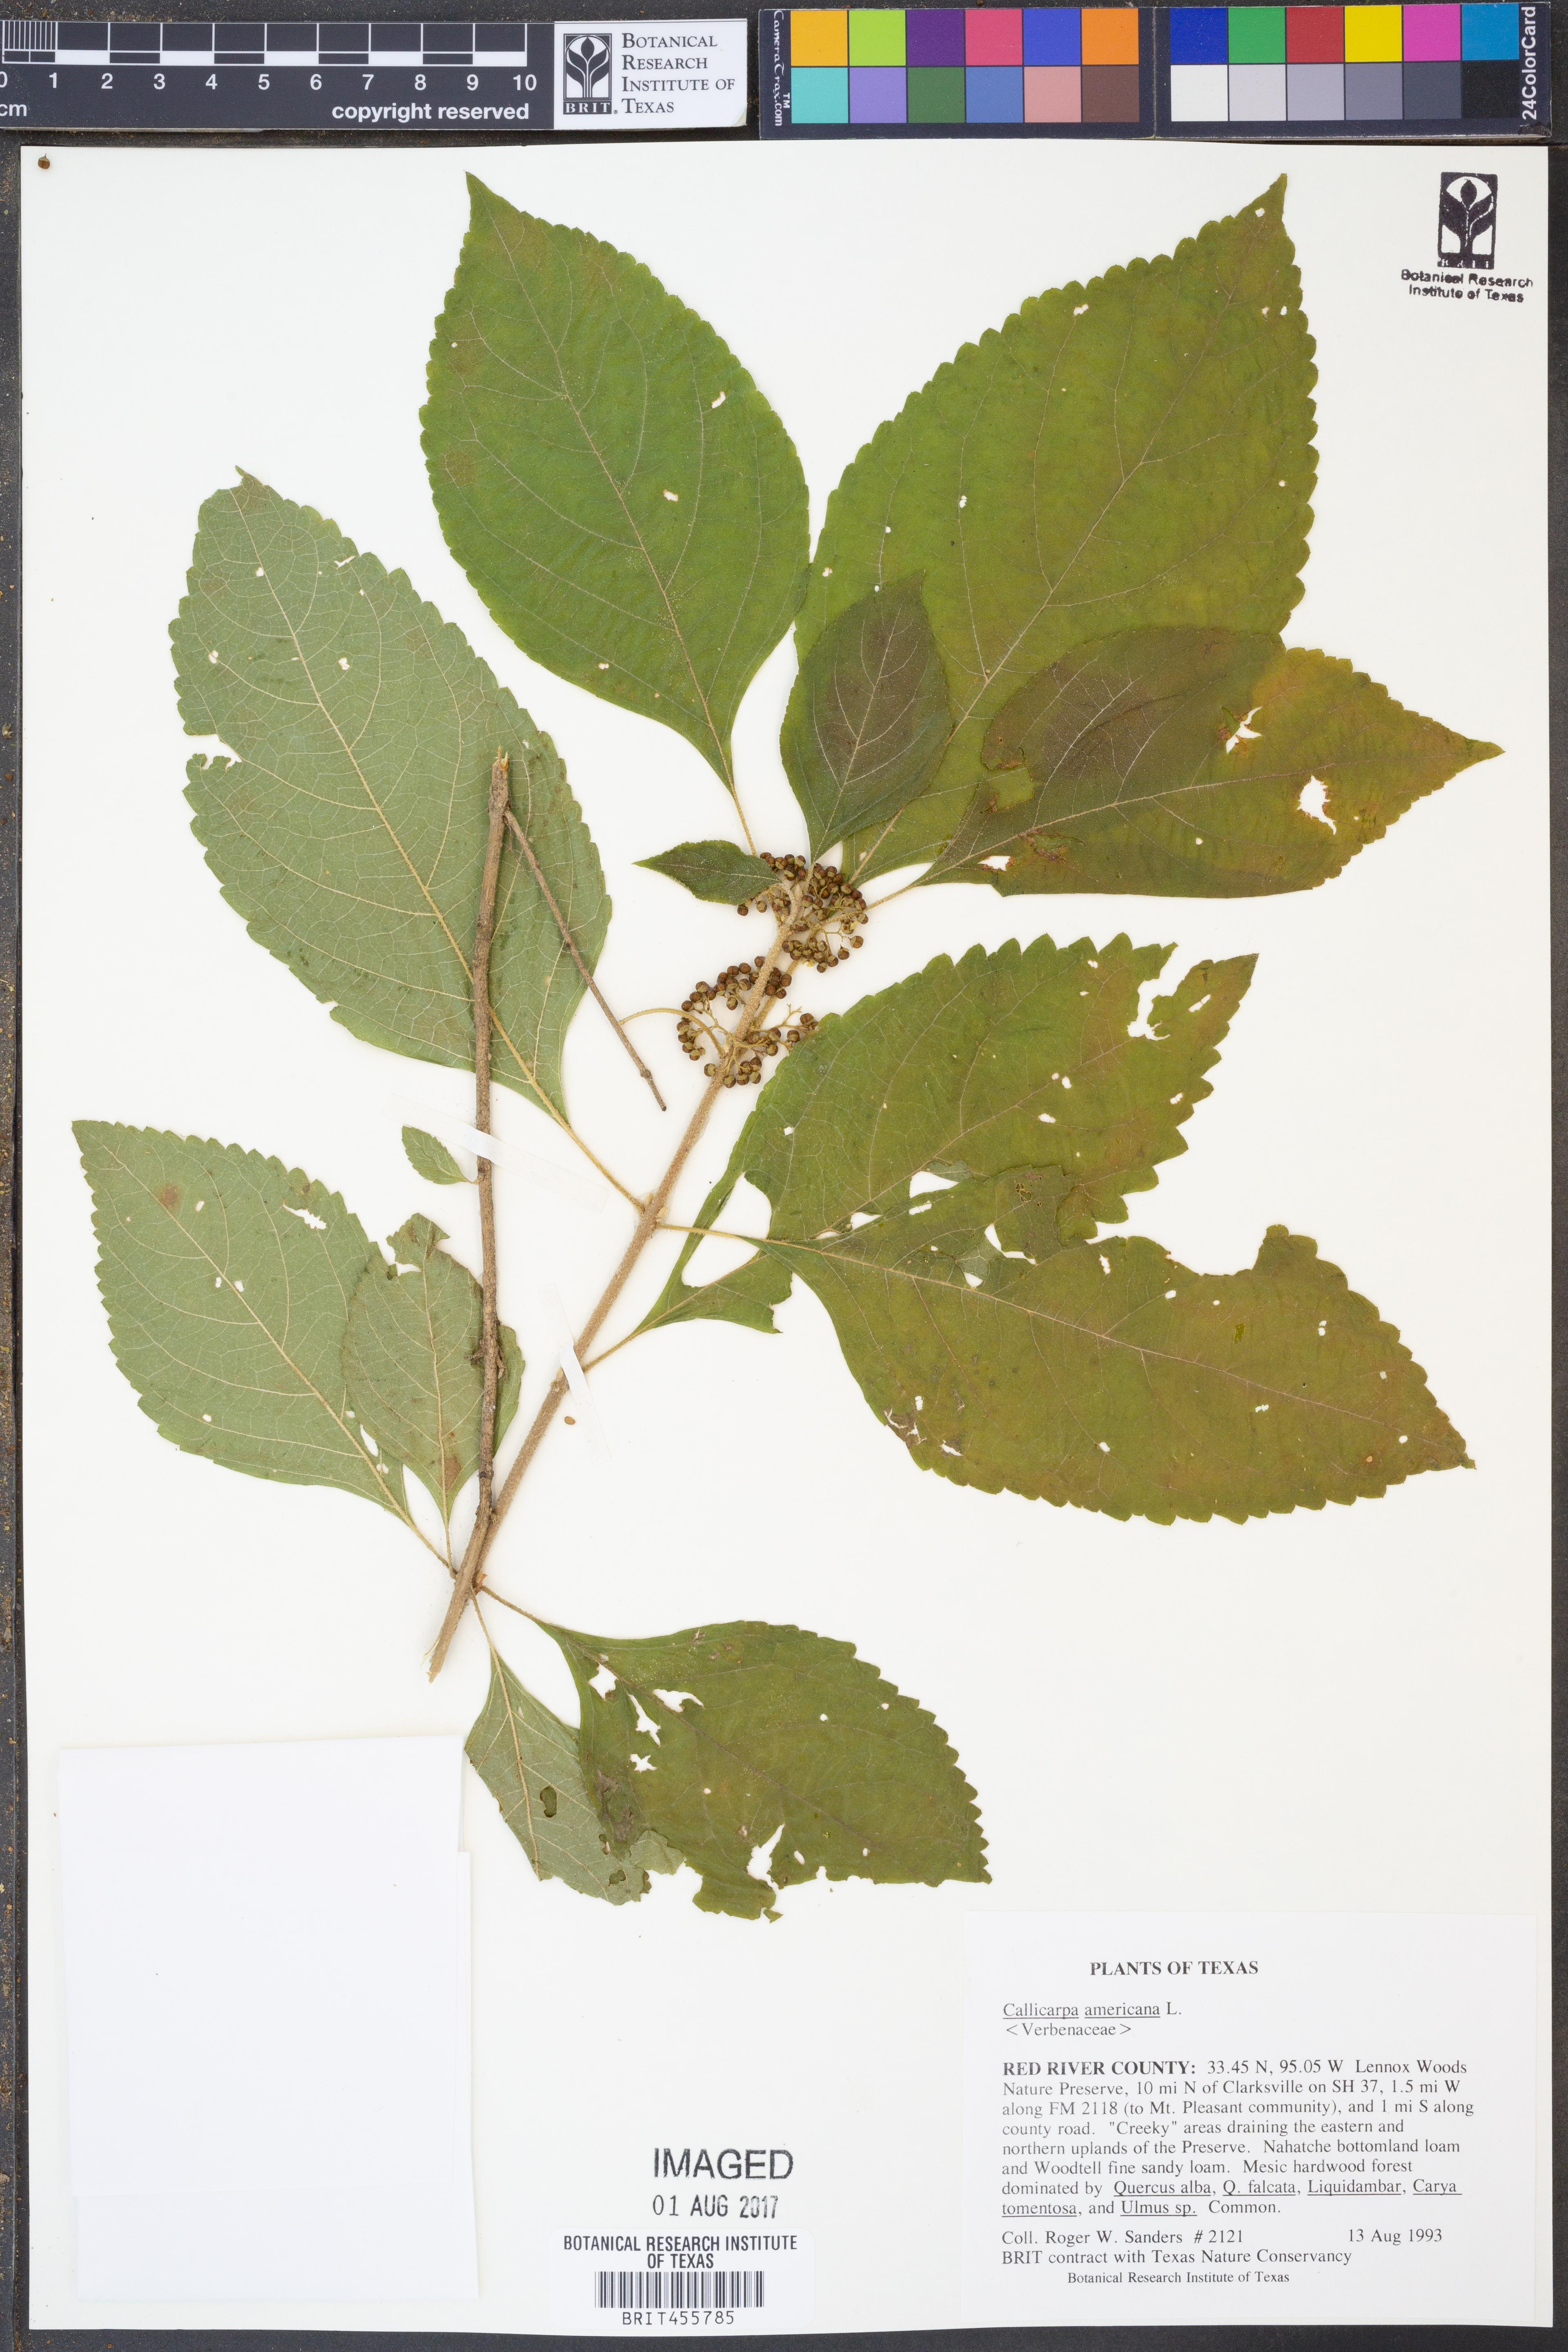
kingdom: Plantae
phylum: Tracheophyta
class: Magnoliopsida
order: Lamiales
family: Lamiaceae
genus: Callicarpa
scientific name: Callicarpa americana
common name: American beautyberry
